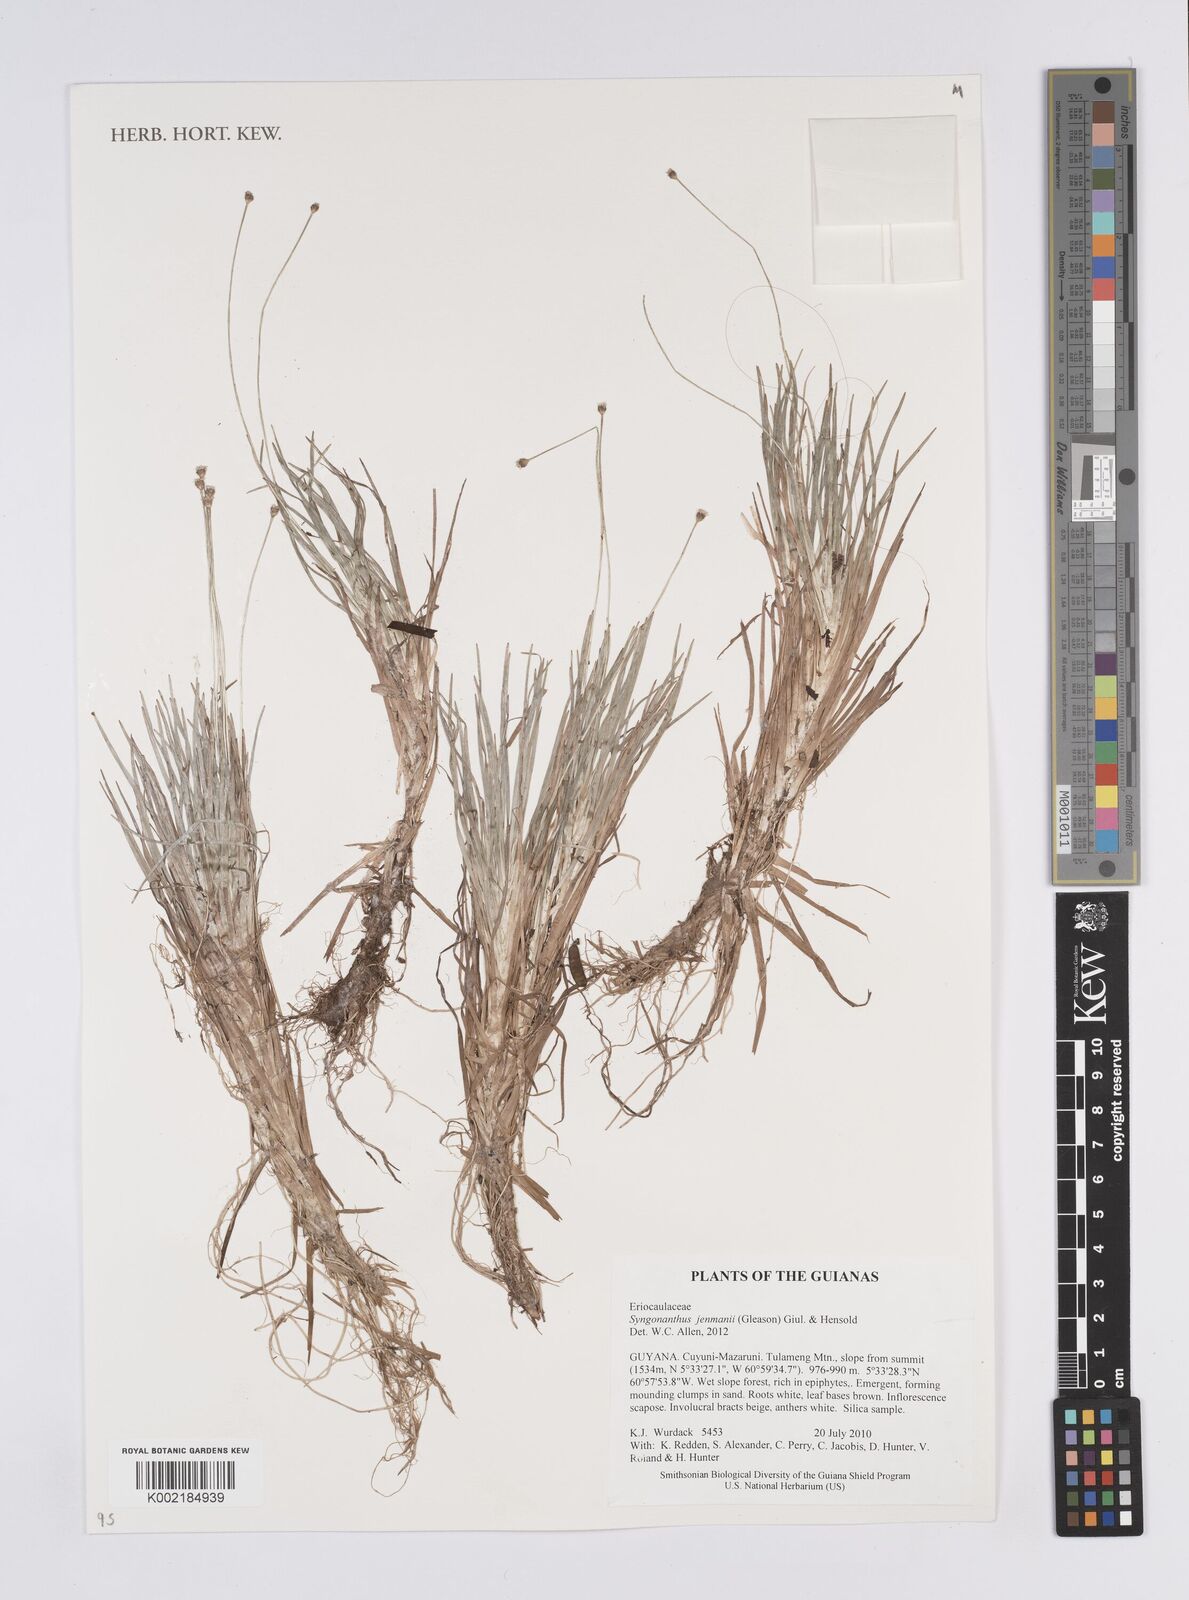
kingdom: Plantae
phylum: Tracheophyta
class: Liliopsida
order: Poales
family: Eriocaulaceae
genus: Comanthera
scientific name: Comanthera jenmanii
